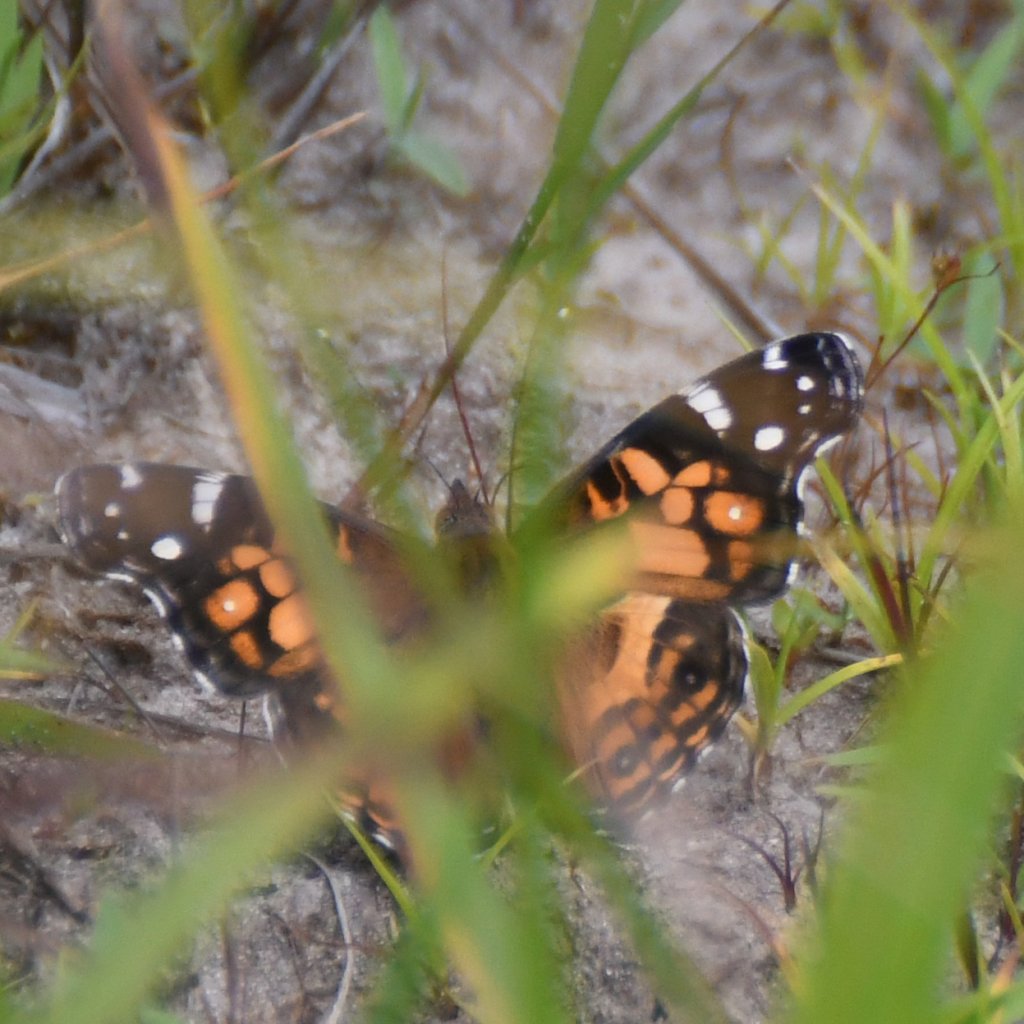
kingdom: Animalia
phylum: Arthropoda
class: Insecta
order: Lepidoptera
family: Nymphalidae
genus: Vanessa
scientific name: Vanessa virginiensis
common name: American Lady
